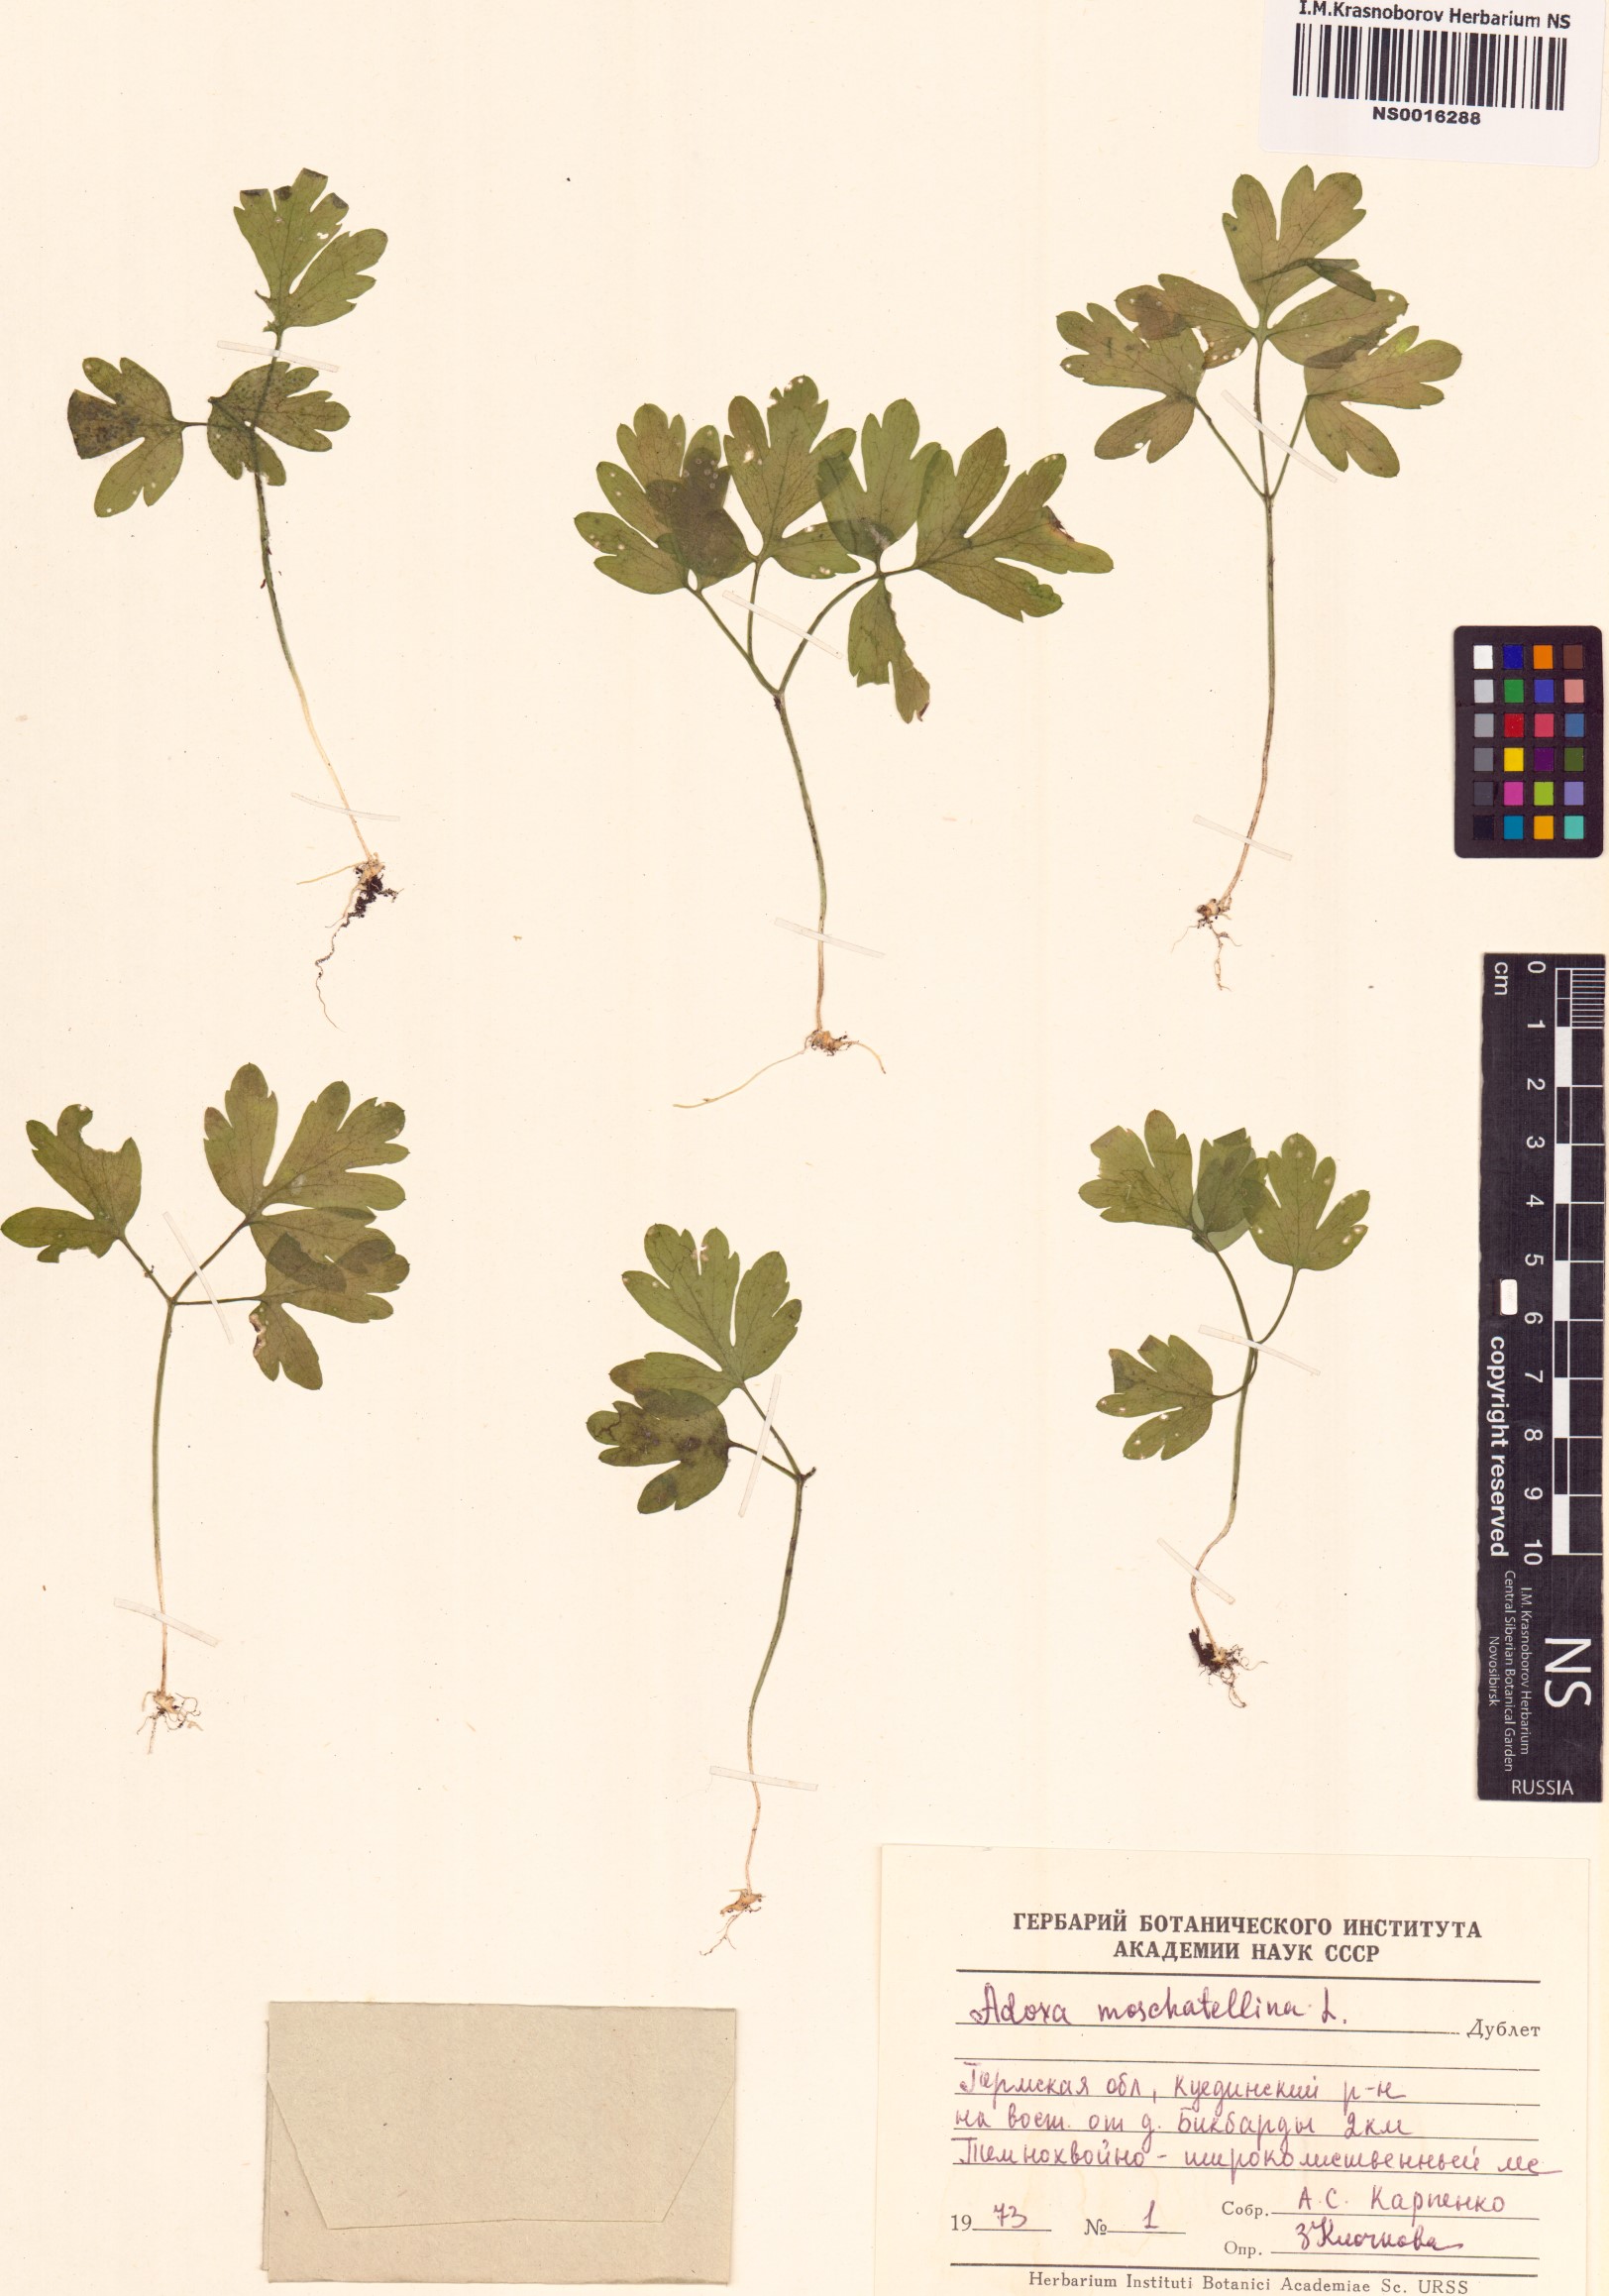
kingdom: Plantae
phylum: Tracheophyta
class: Magnoliopsida
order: Dipsacales
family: Viburnaceae
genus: Adoxa
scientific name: Adoxa moschatellina
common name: Moschatel
